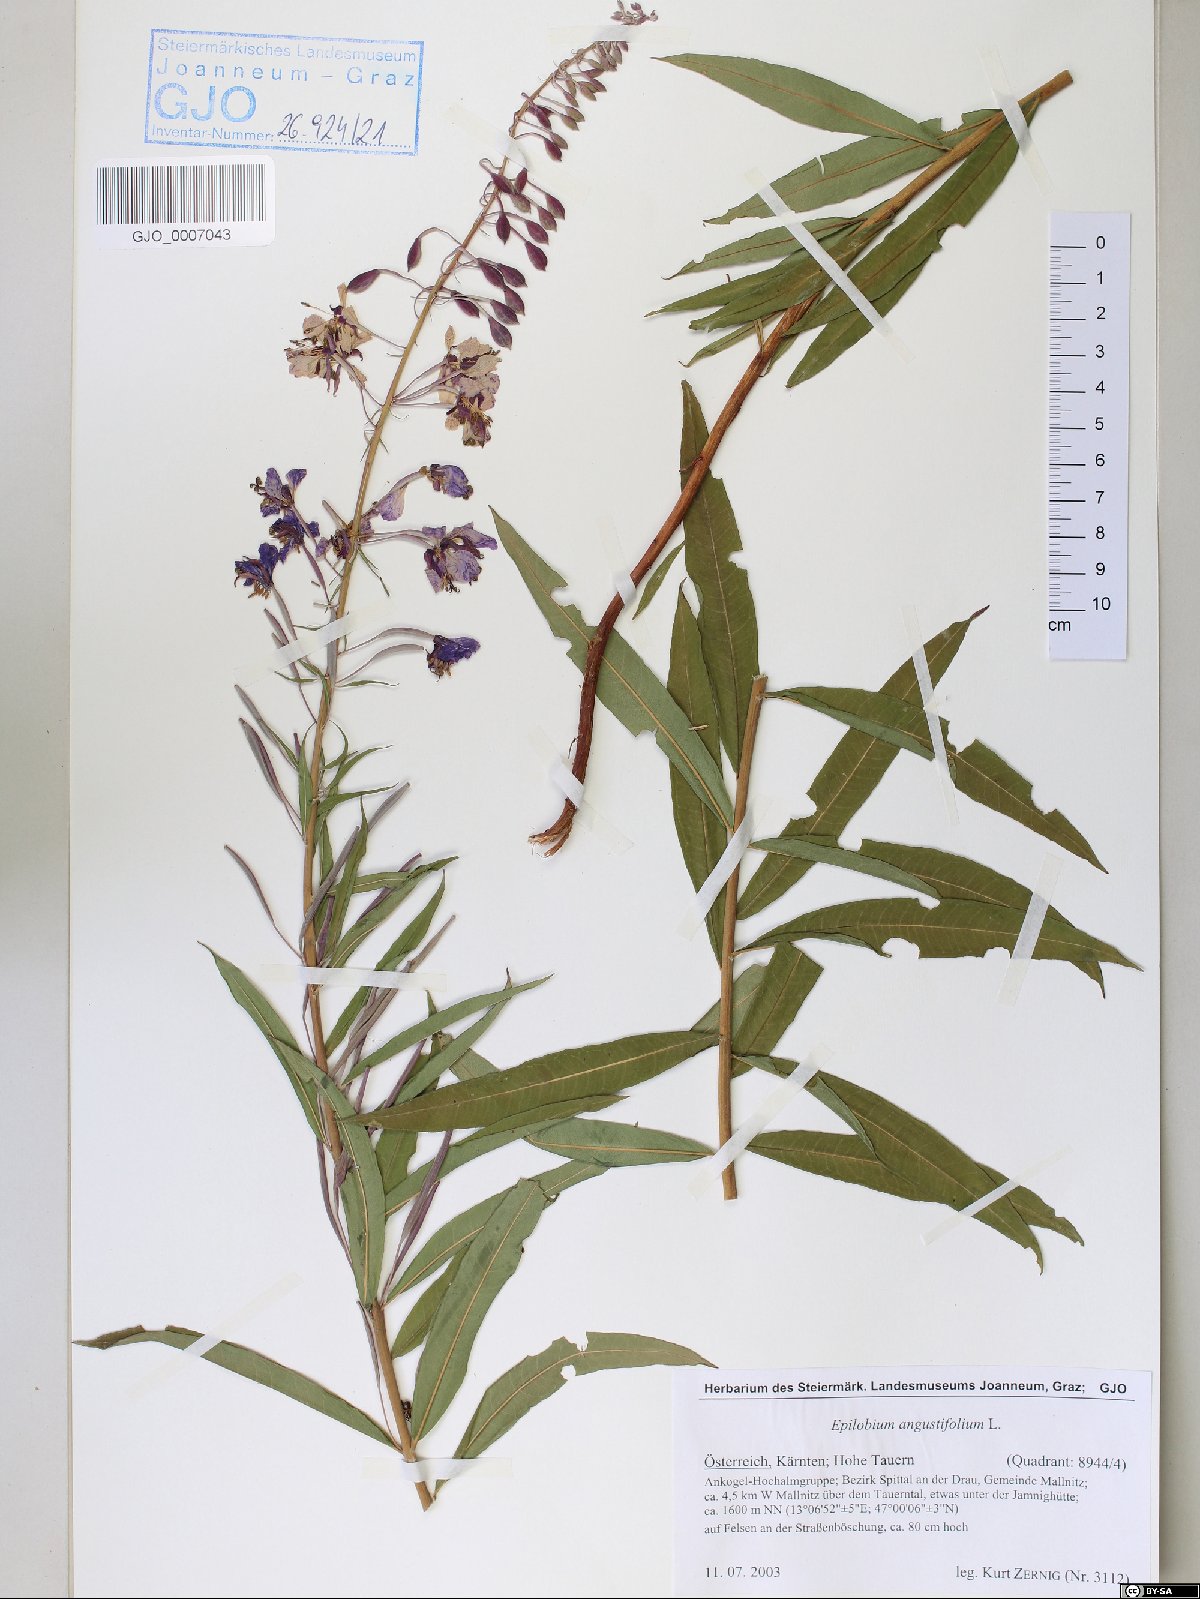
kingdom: Plantae
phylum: Tracheophyta
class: Magnoliopsida
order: Myrtales
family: Onagraceae
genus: Chamaenerion
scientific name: Chamaenerion angustifolium
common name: Fireweed
